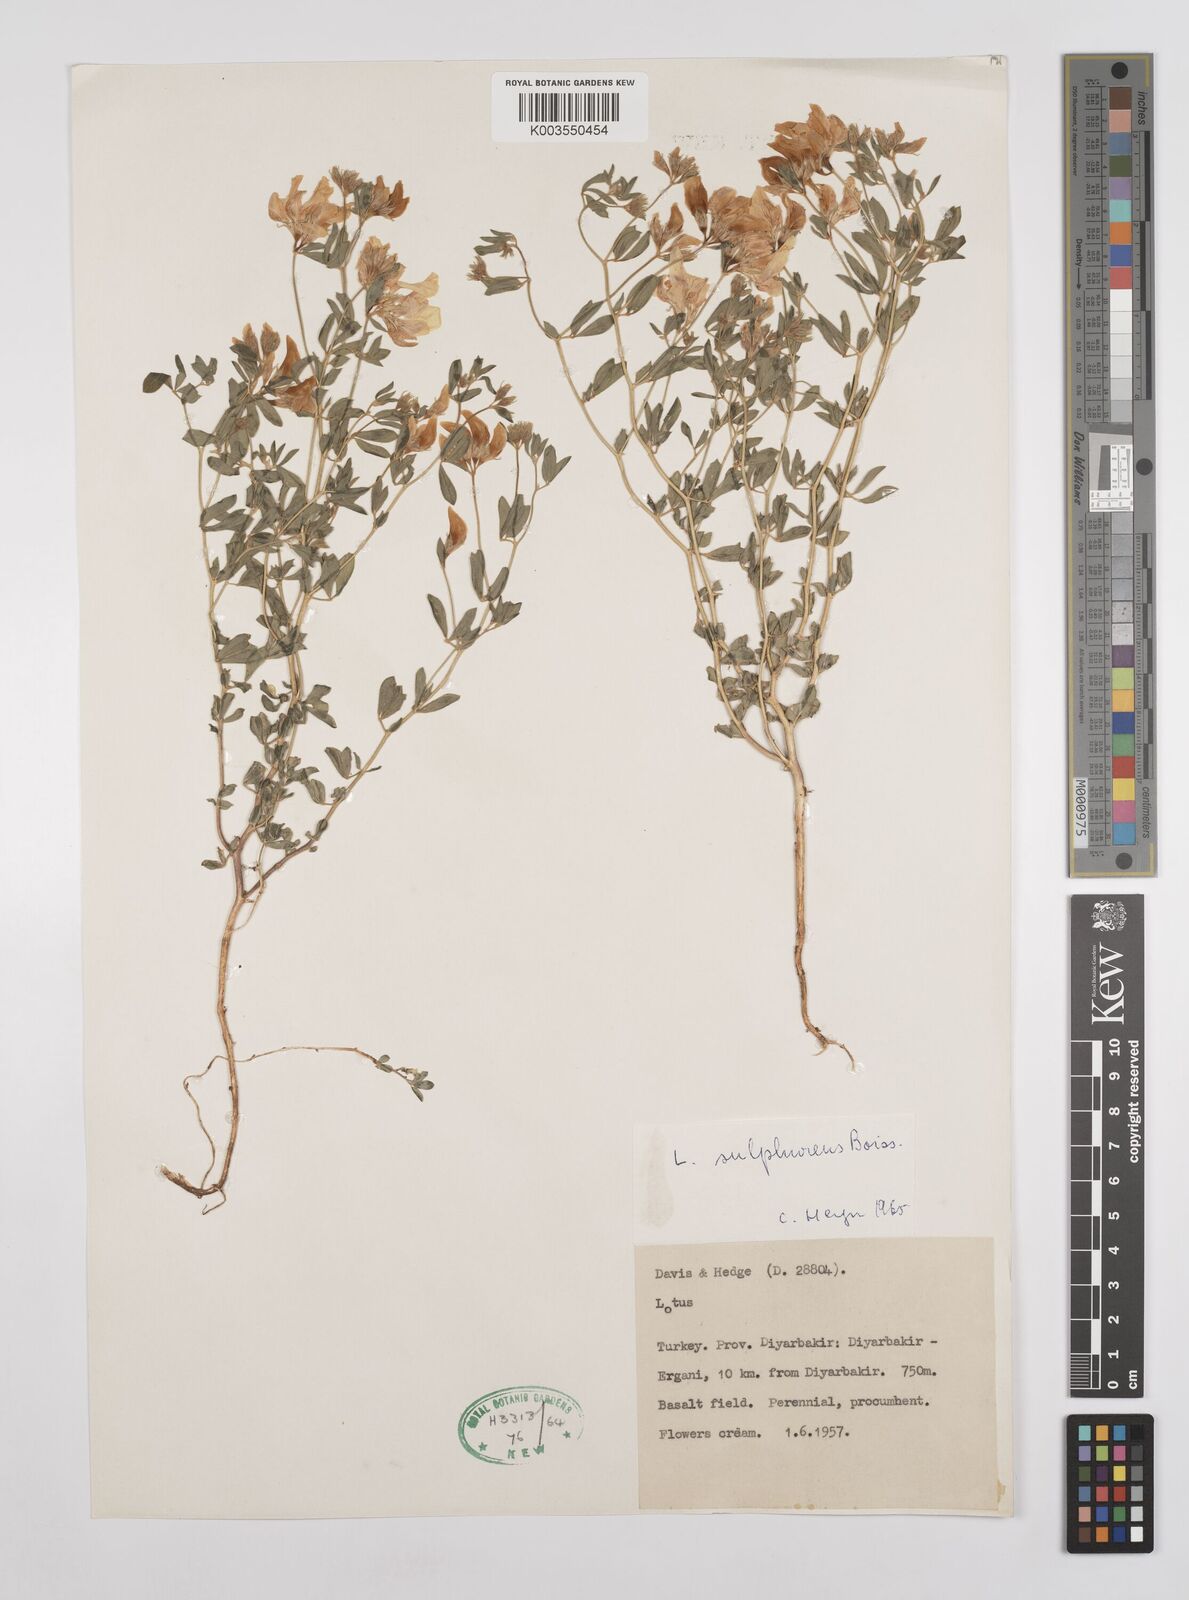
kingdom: Plantae
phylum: Tracheophyta
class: Magnoliopsida
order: Fabales
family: Fabaceae
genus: Lotus
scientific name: Lotus aegaeus
